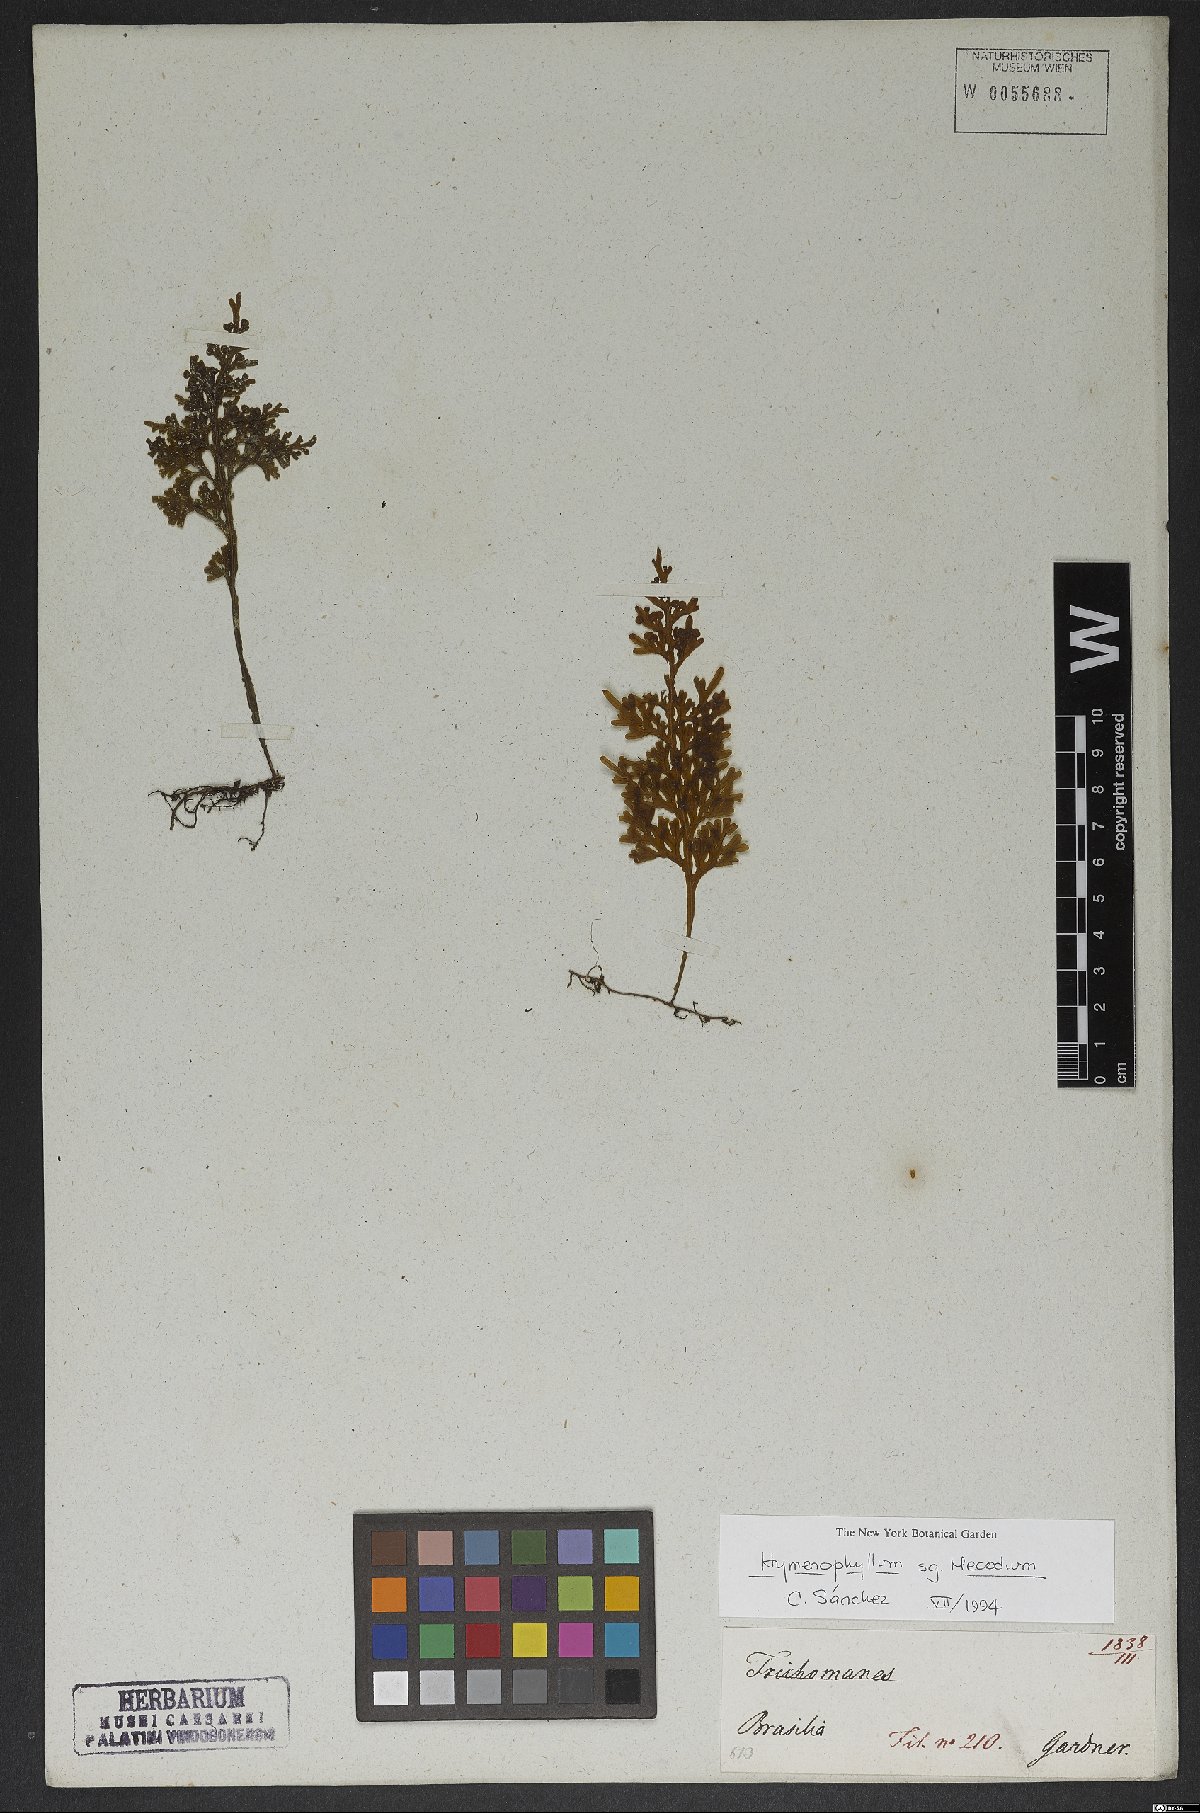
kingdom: Plantae
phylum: Tracheophyta
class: Polypodiopsida
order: Hymenophyllales
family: Hymenophyllaceae
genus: Hymenophyllum
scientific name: Hymenophyllum asplenioides
